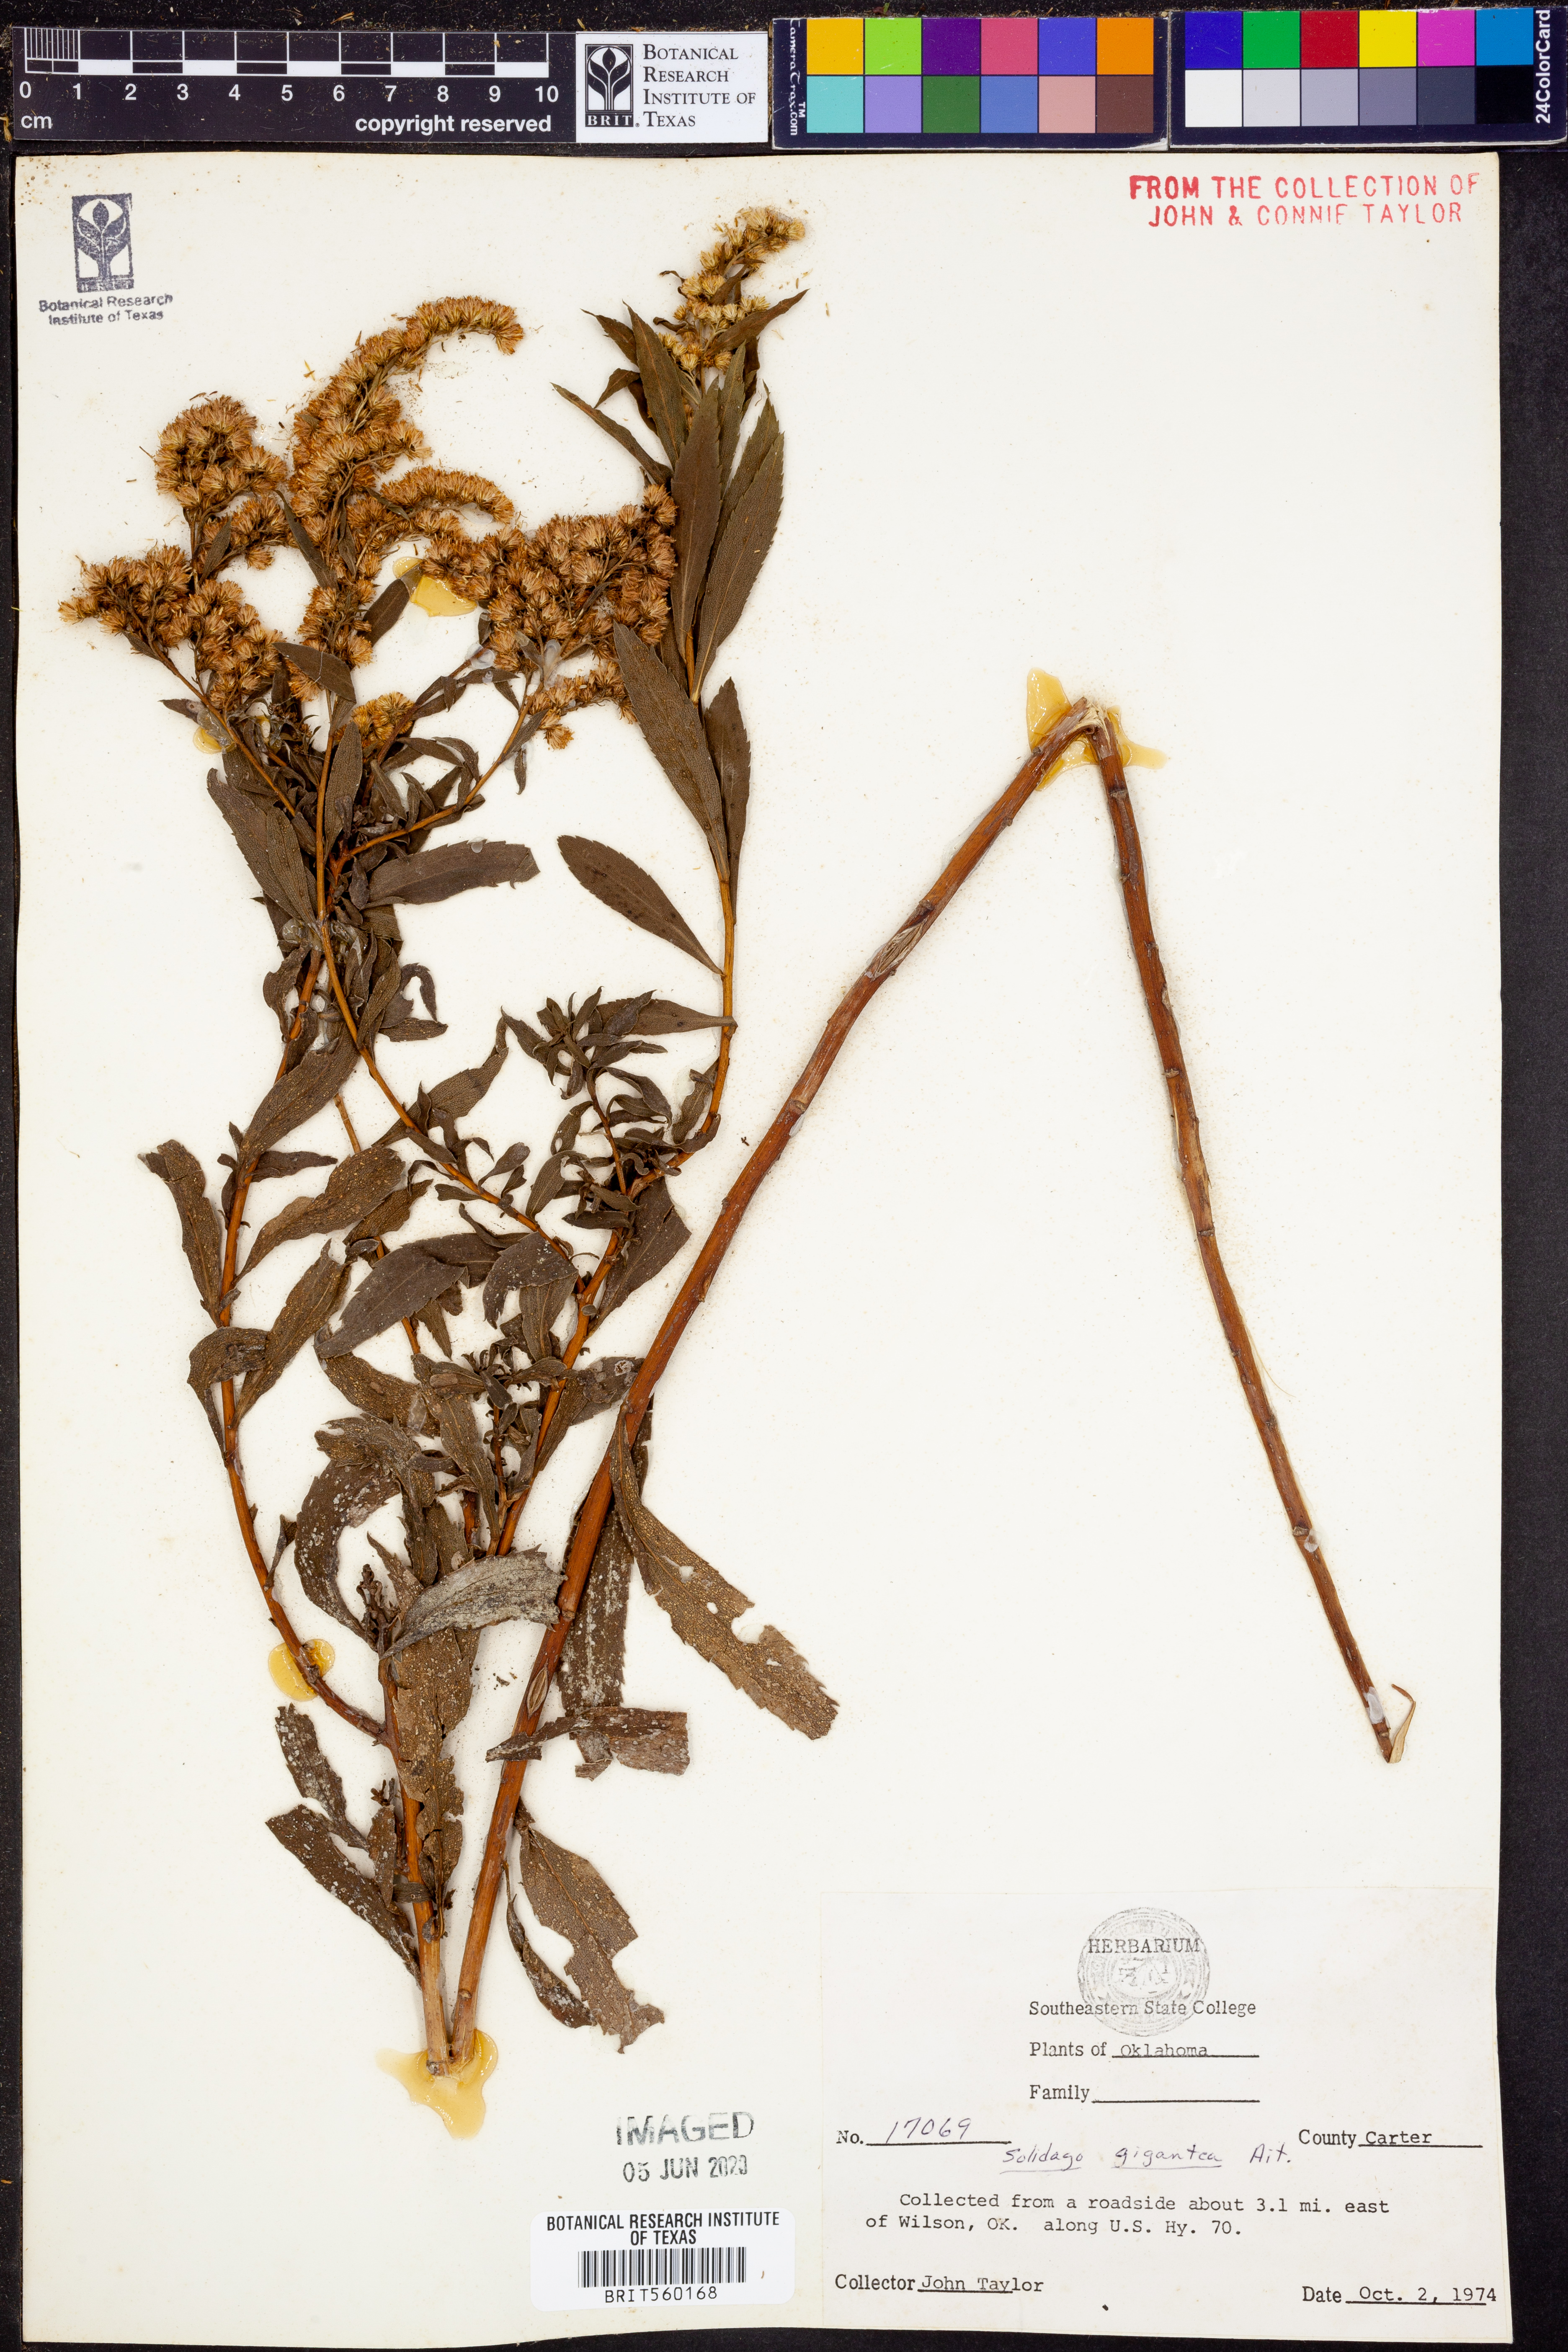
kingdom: Plantae
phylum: Tracheophyta
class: Magnoliopsida
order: Asterales
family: Asteraceae
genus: Solidago
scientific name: Solidago gigantea
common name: Giant goldenrod
